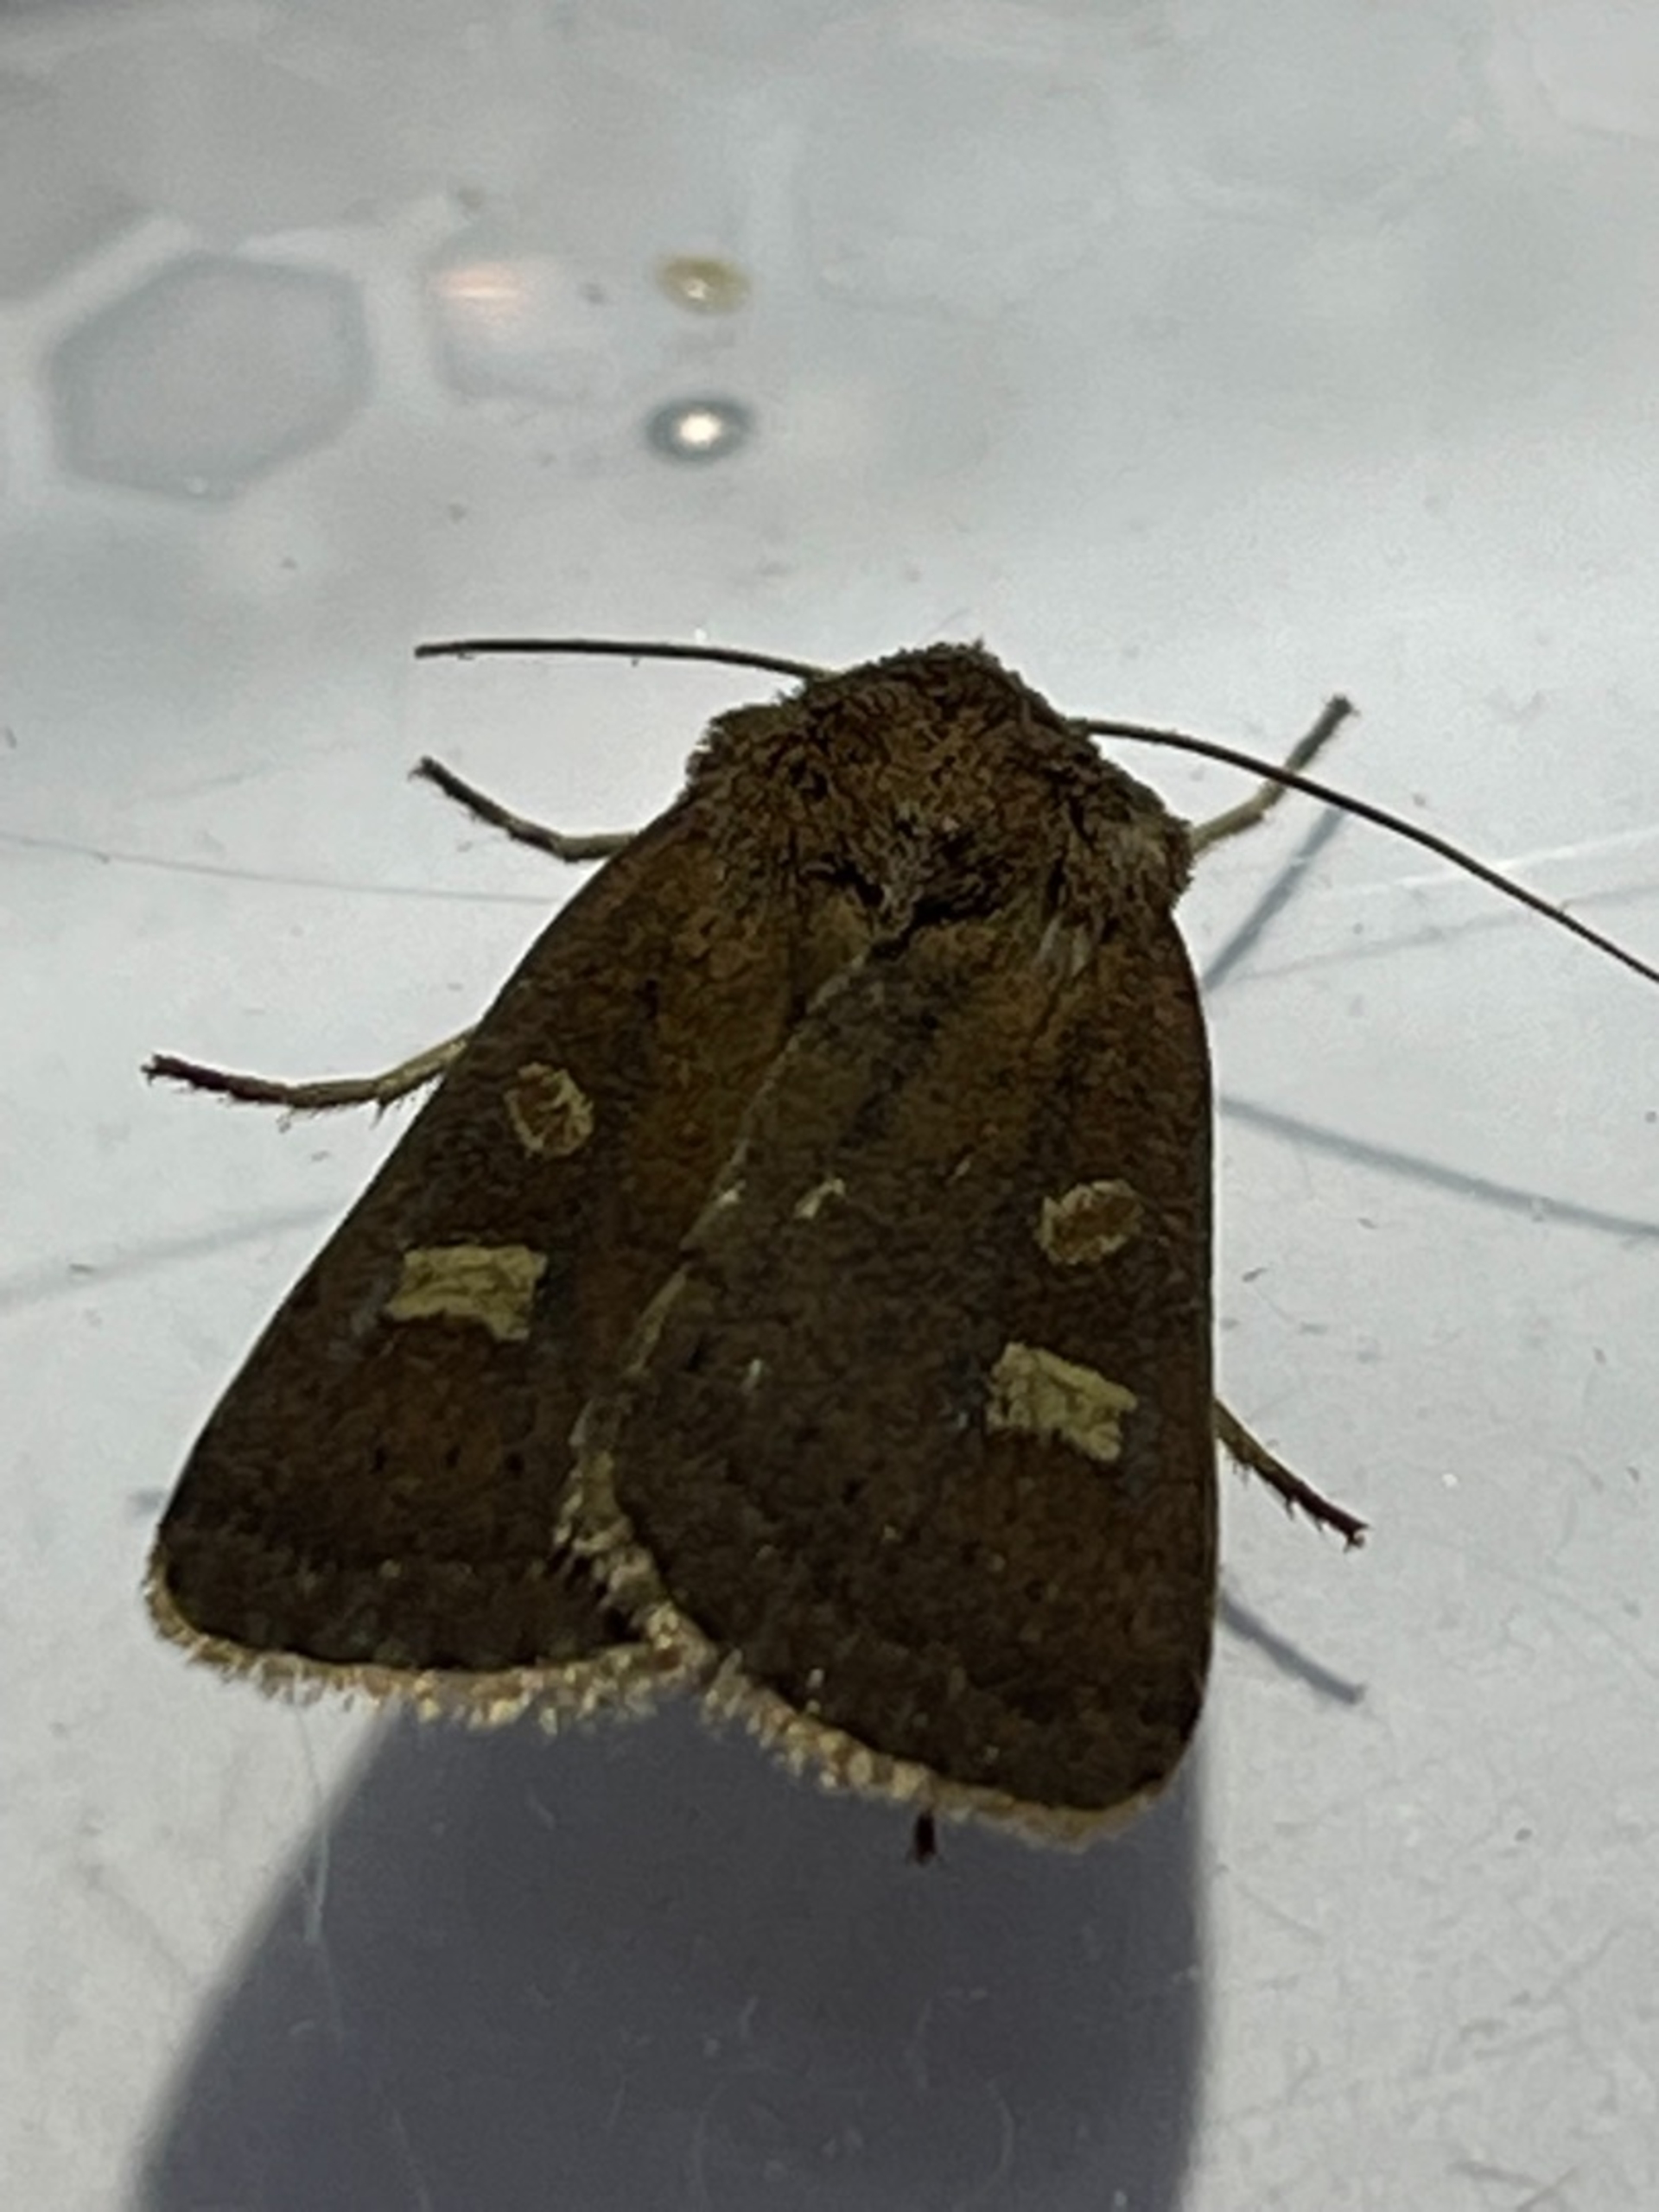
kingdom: Animalia
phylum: Arthropoda
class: Insecta
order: Lepidoptera
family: Noctuidae
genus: Xestia
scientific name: Xestia xanthographa
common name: Gulmærket glansugle
